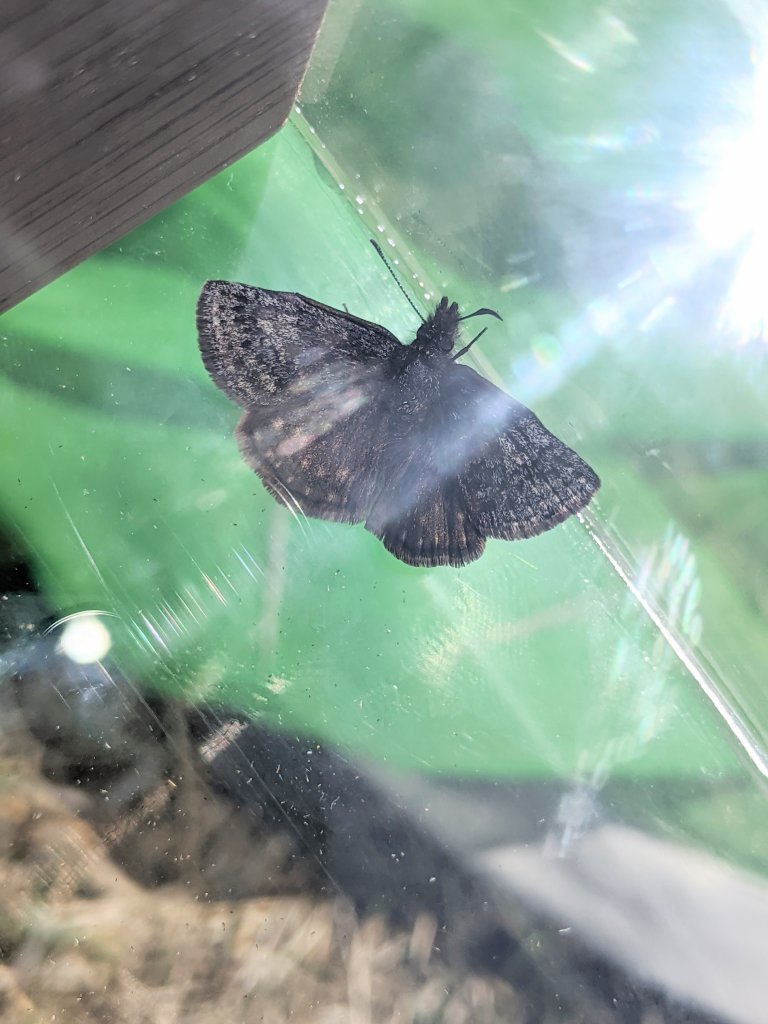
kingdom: Animalia
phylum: Arthropoda
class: Insecta
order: Lepidoptera
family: Hesperiidae
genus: Erynnis
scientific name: Erynnis icelus
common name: Dreamy Duskywing
